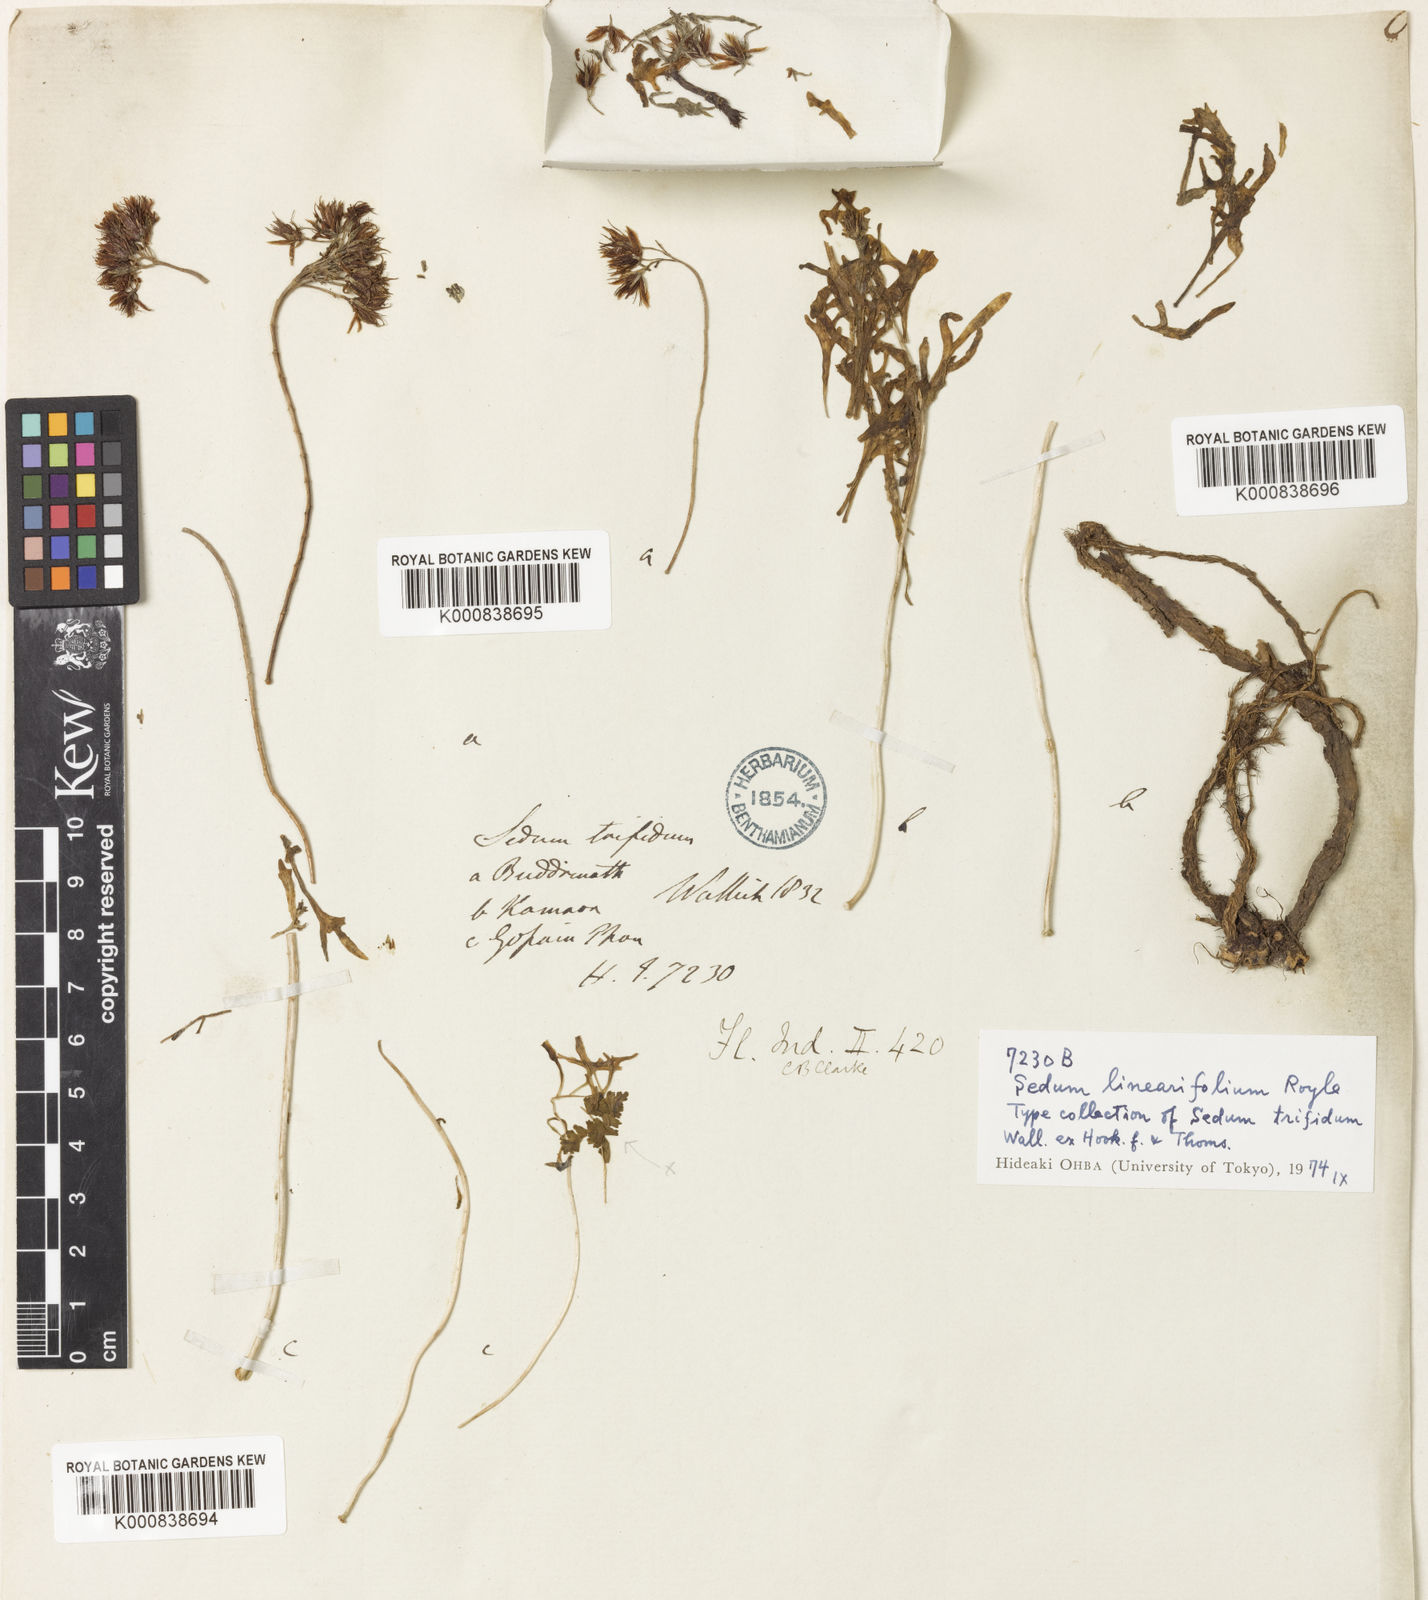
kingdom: Plantae
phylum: Tracheophyta
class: Magnoliopsida
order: Saxifragales
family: Crassulaceae
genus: Rhodiola
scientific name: Rhodiola sinuata
